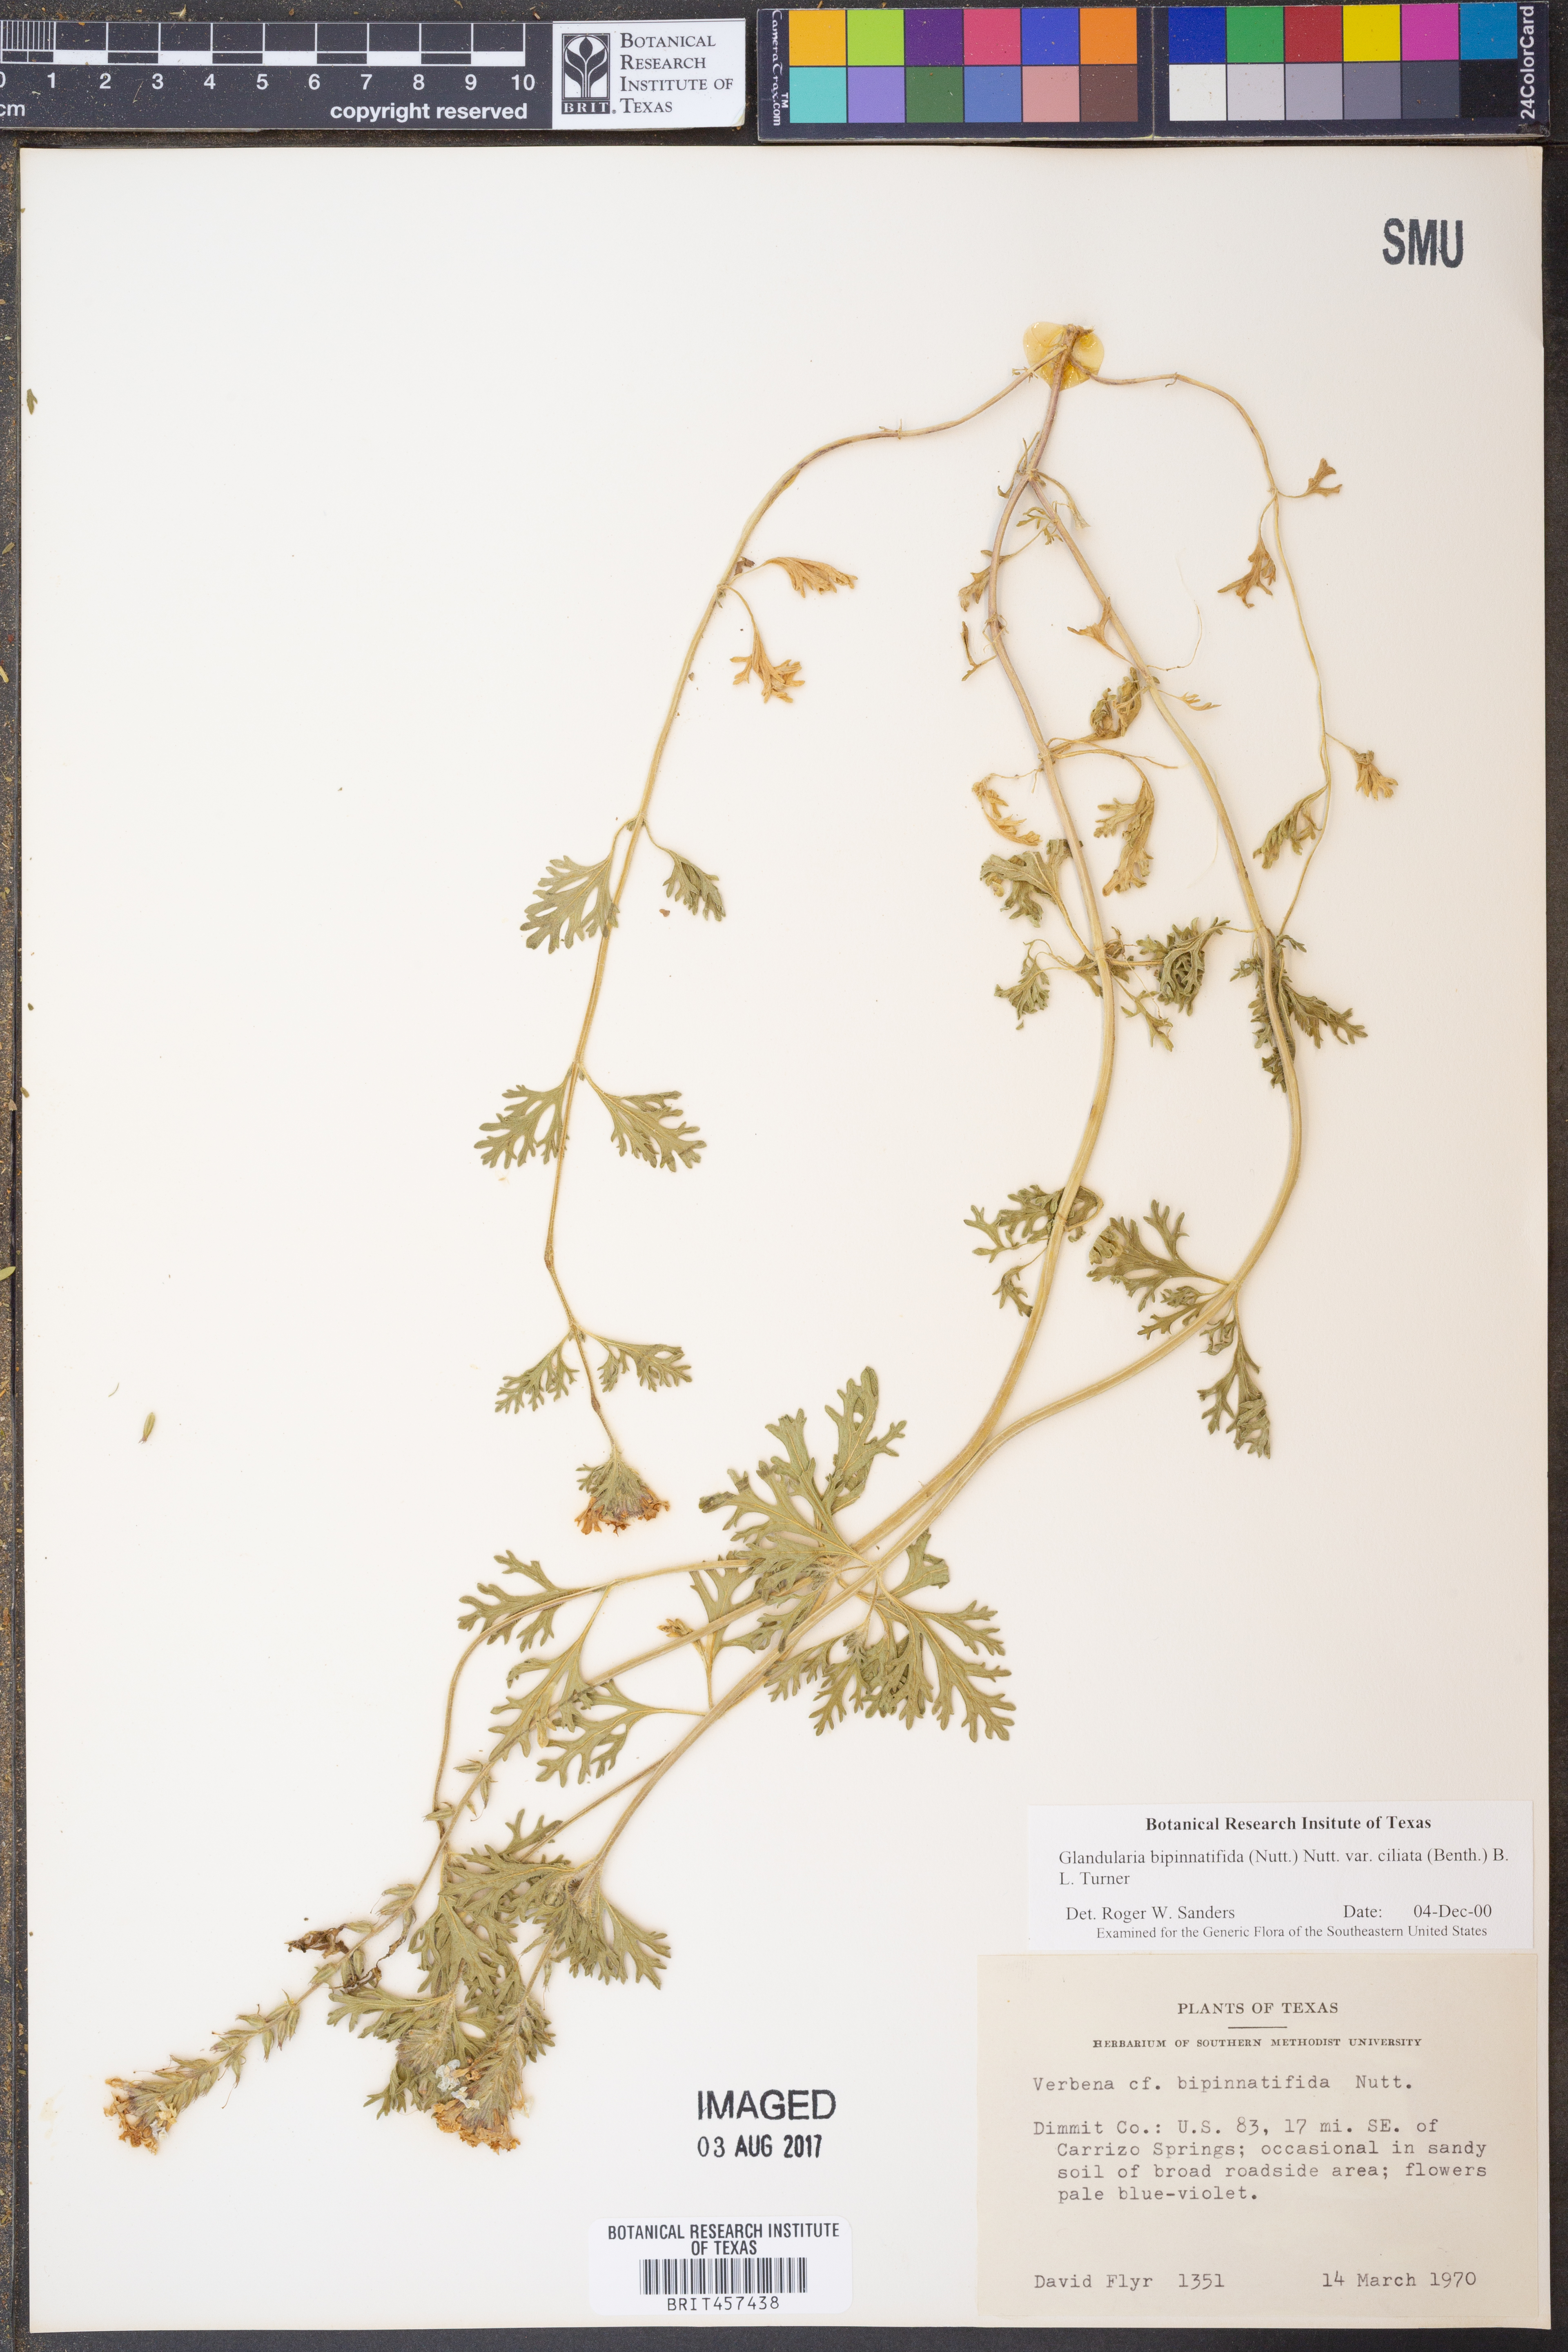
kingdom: Plantae
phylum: Tracheophyta
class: Magnoliopsida
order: Lamiales
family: Verbenaceae
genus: Verbena
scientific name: Verbena bipinnatifida
